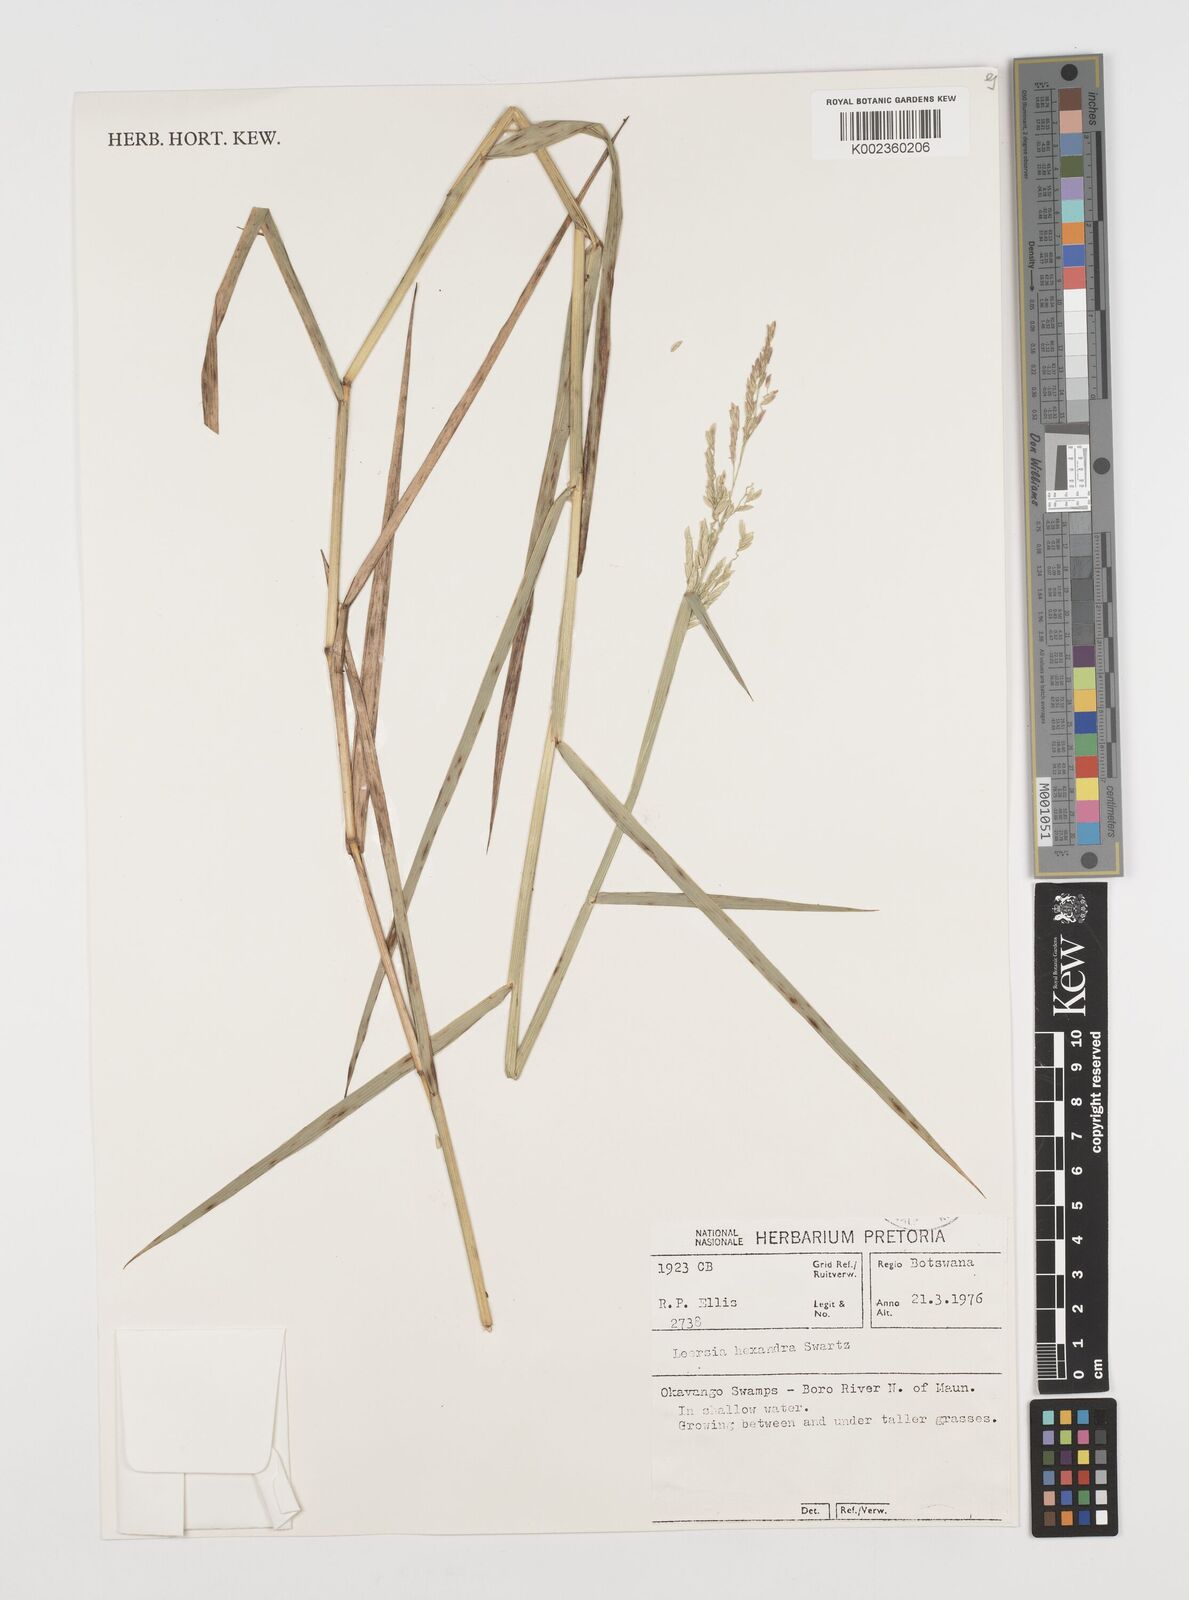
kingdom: Plantae
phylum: Tracheophyta
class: Liliopsida
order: Poales
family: Poaceae
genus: Leersia
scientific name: Leersia hexandra
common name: Southern cut grass
